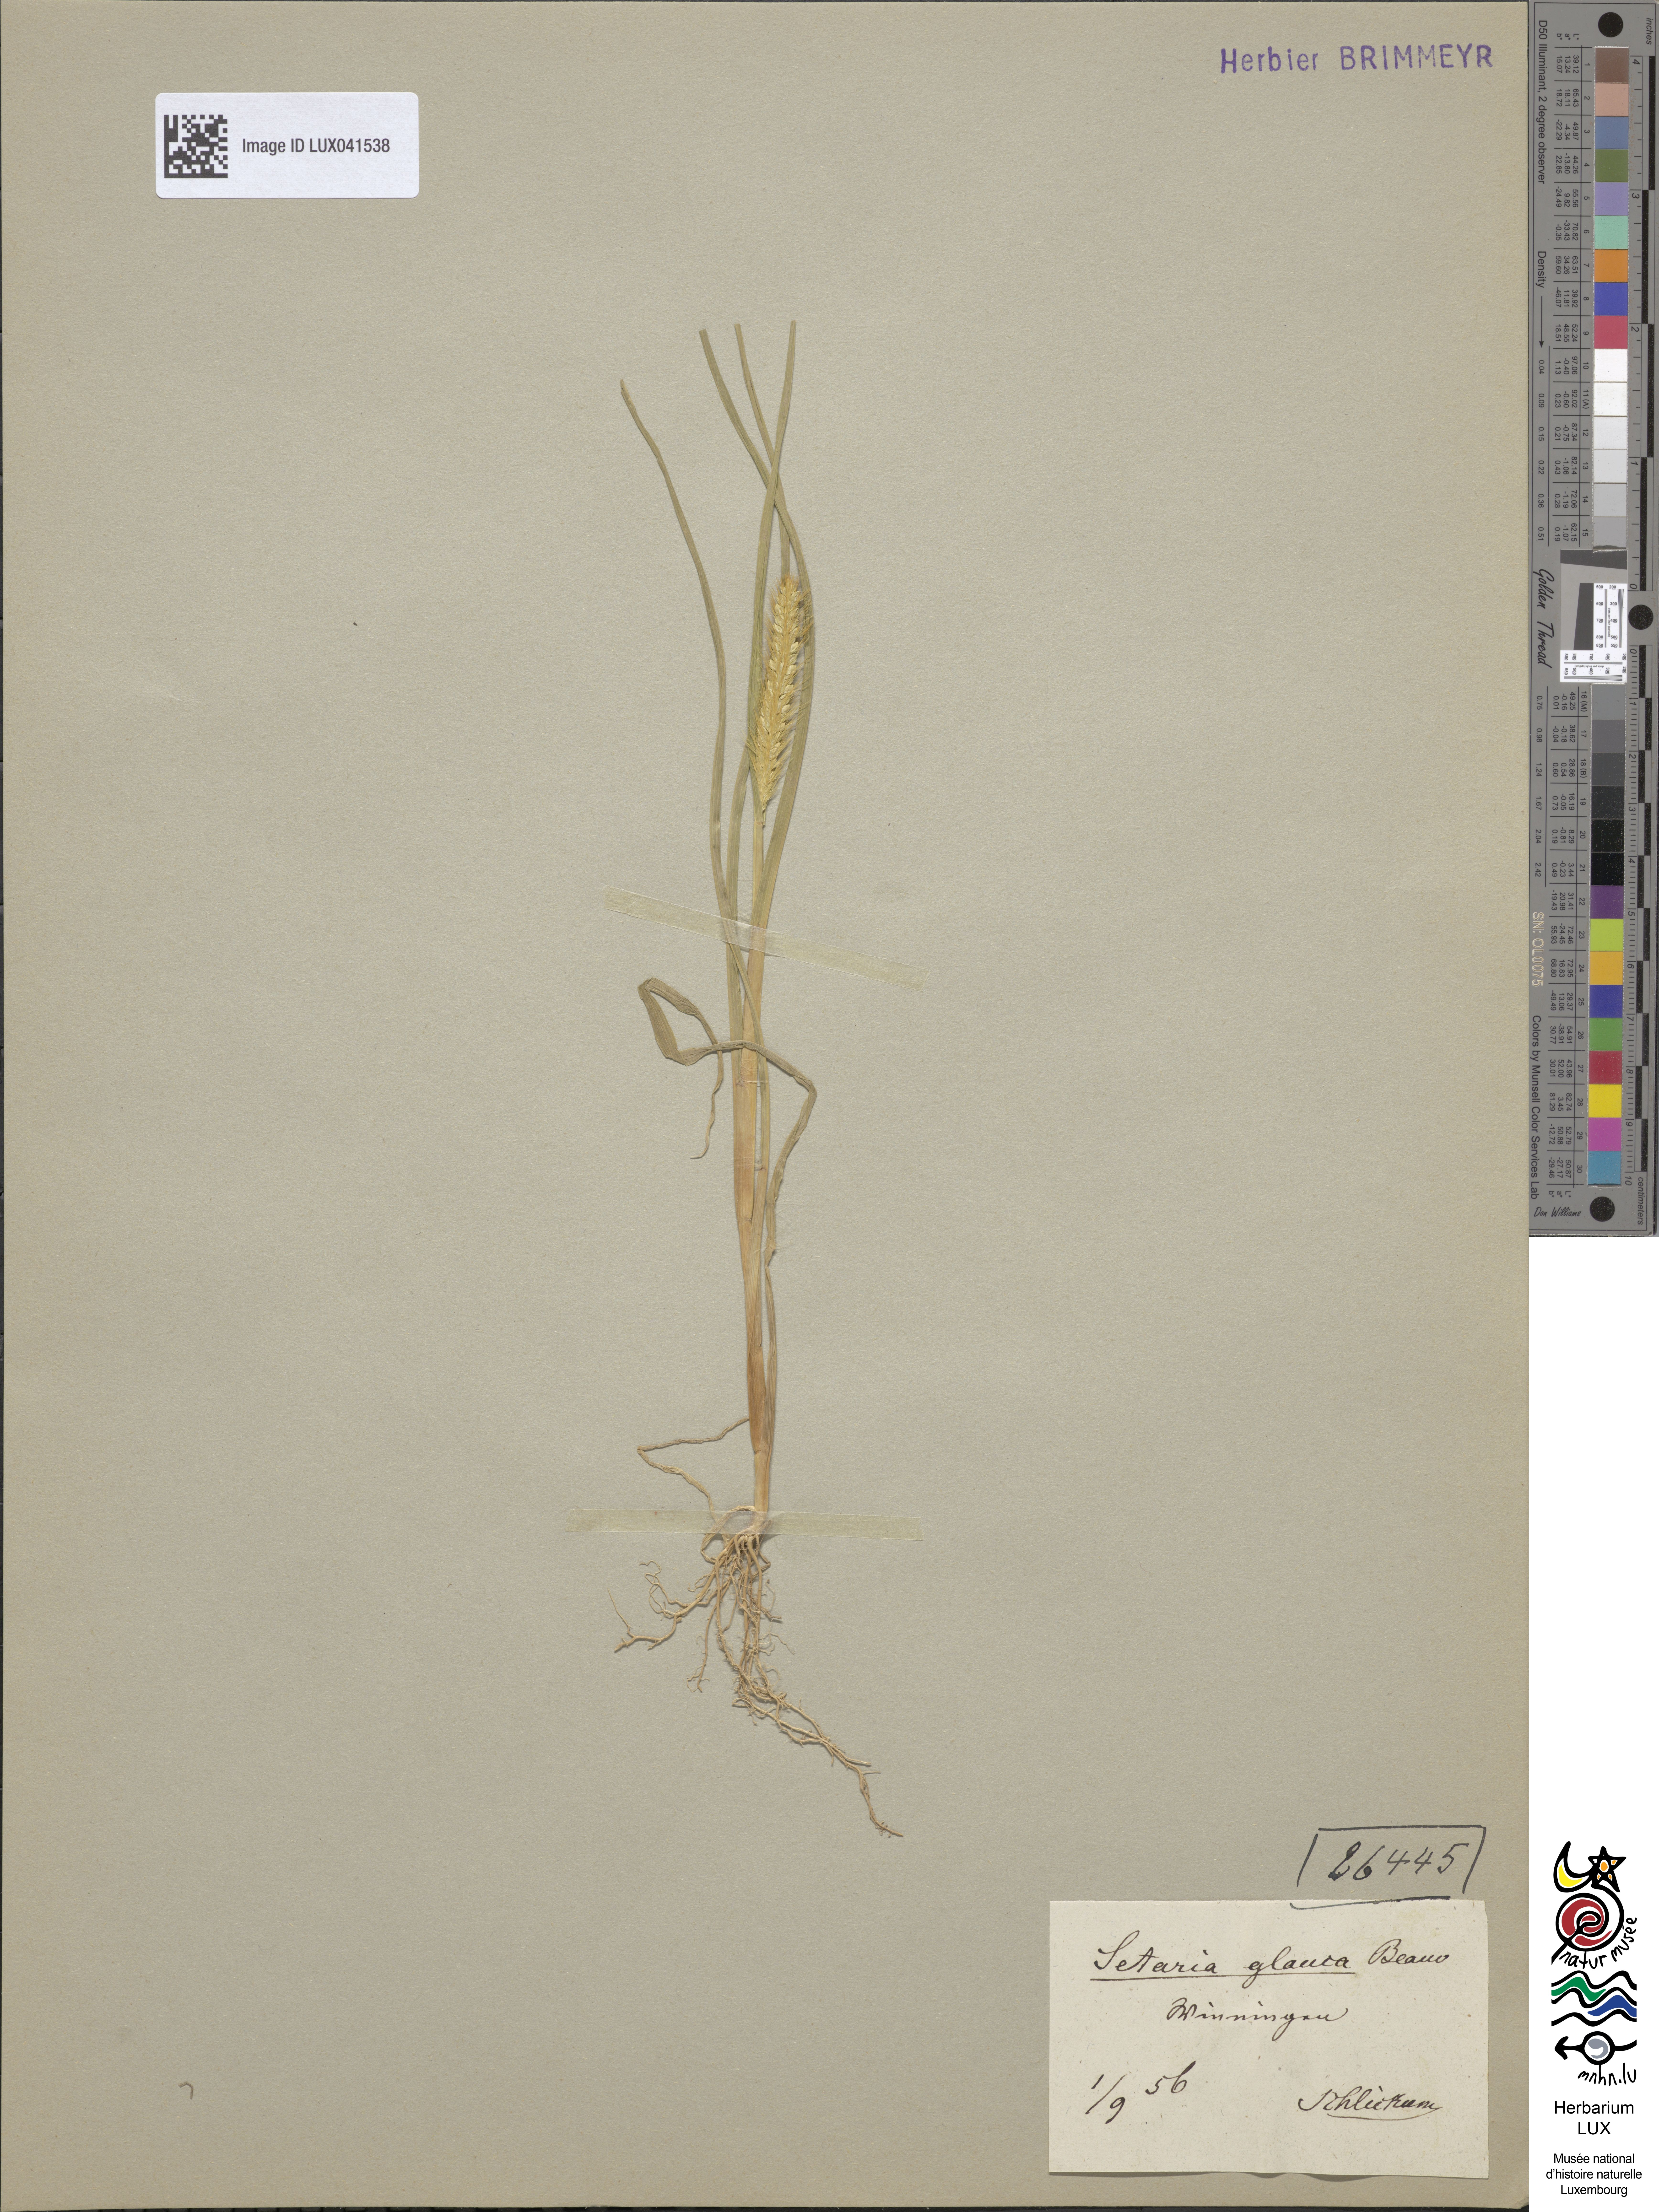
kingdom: Plantae
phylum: Tracheophyta
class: Liliopsida
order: Poales
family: Poaceae
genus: Cenchrus
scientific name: Cenchrus americanus
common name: Pearl millet
